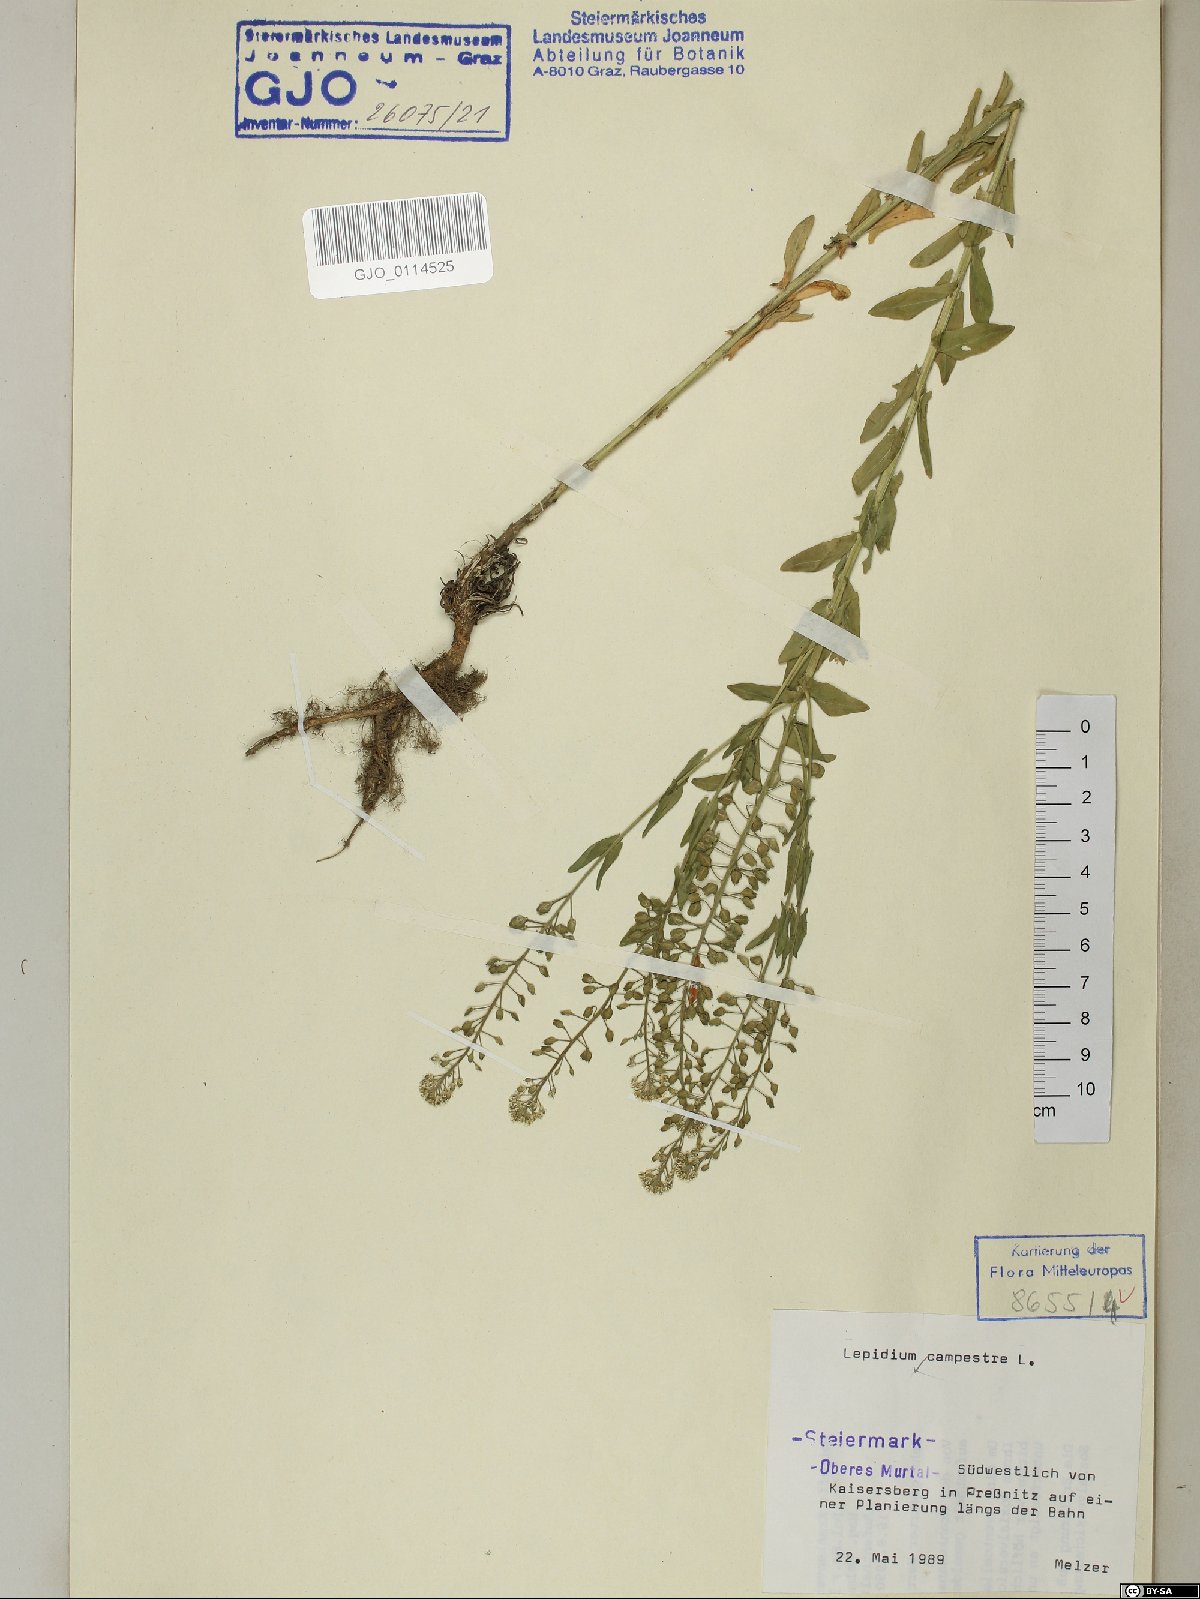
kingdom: Plantae
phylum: Tracheophyta
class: Magnoliopsida
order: Brassicales
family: Brassicaceae
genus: Lepidium
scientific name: Lepidium campestre
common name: Field pepperwort
